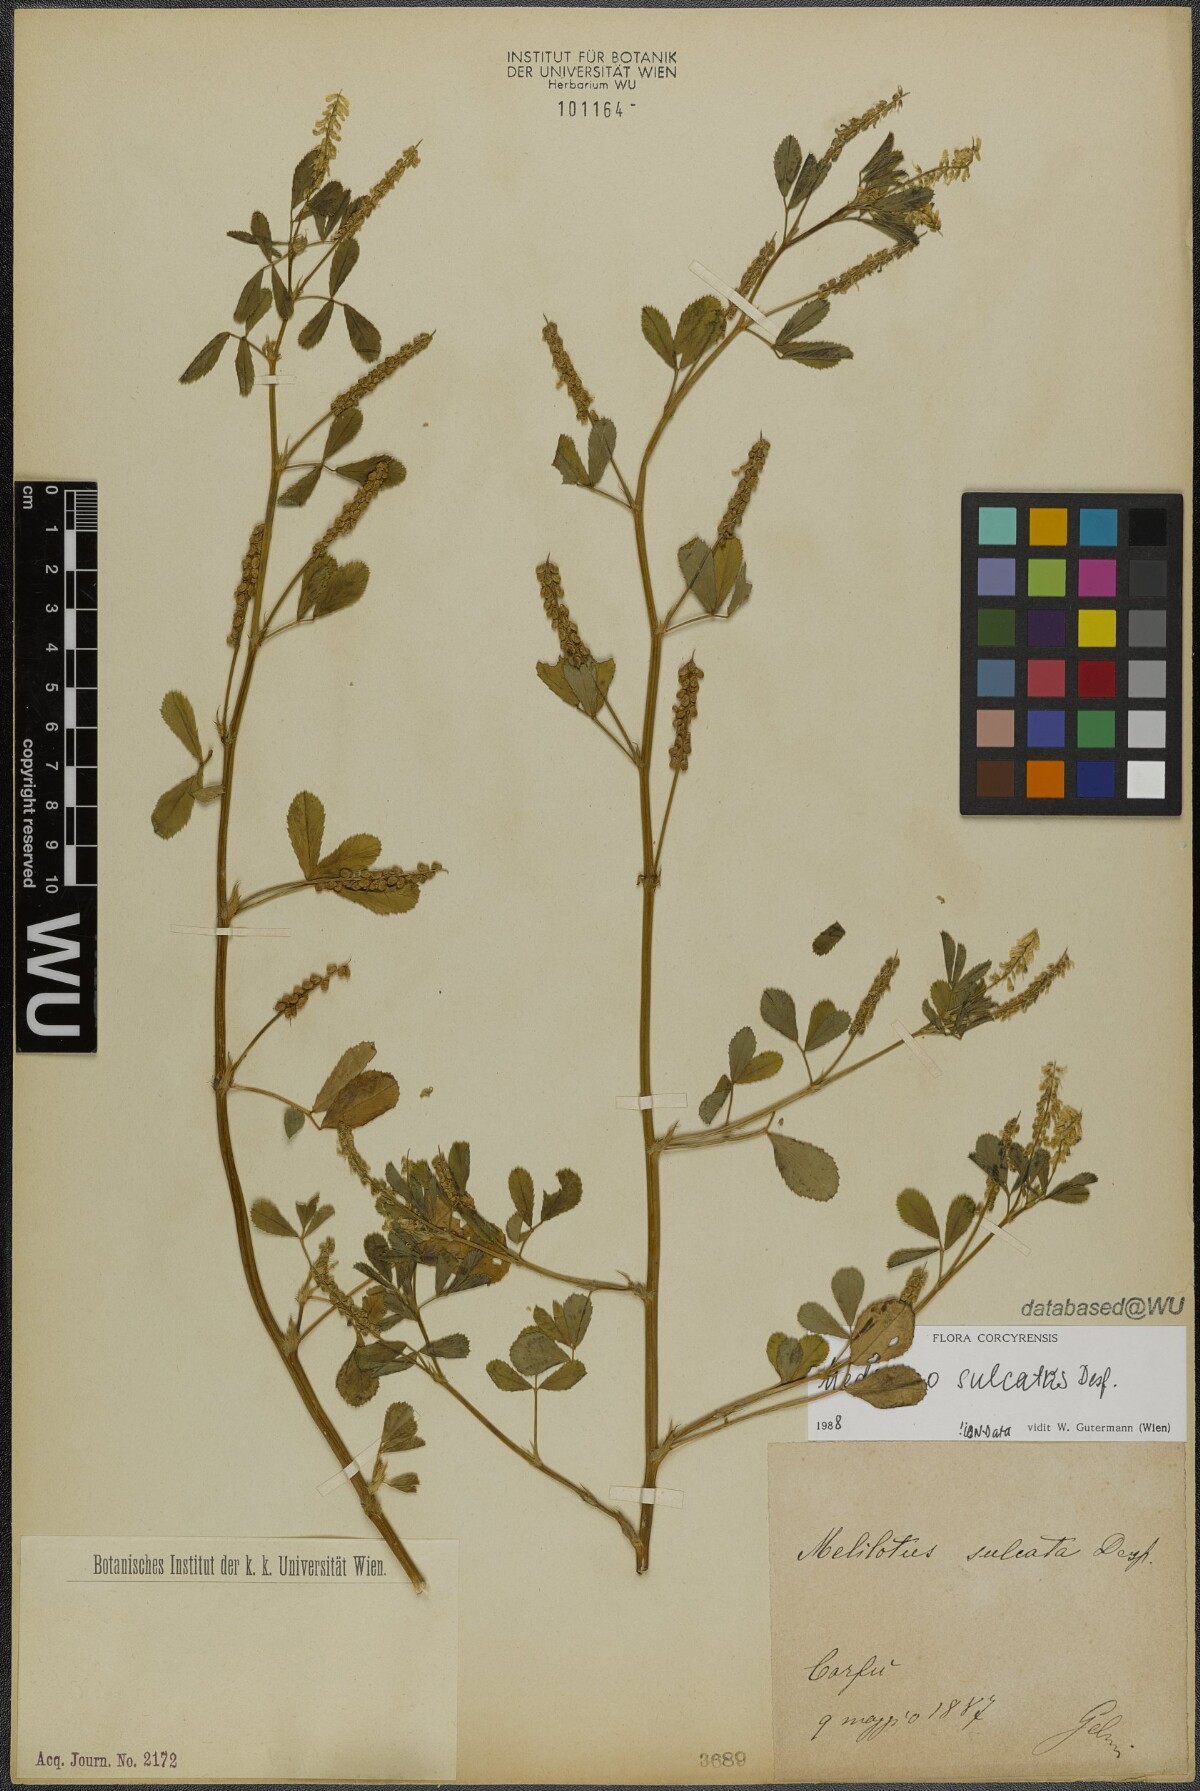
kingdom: Plantae
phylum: Tracheophyta
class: Magnoliopsida
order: Fabales
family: Fabaceae
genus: Melilotus
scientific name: Melilotus sulcatus
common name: Furrowed melilot
